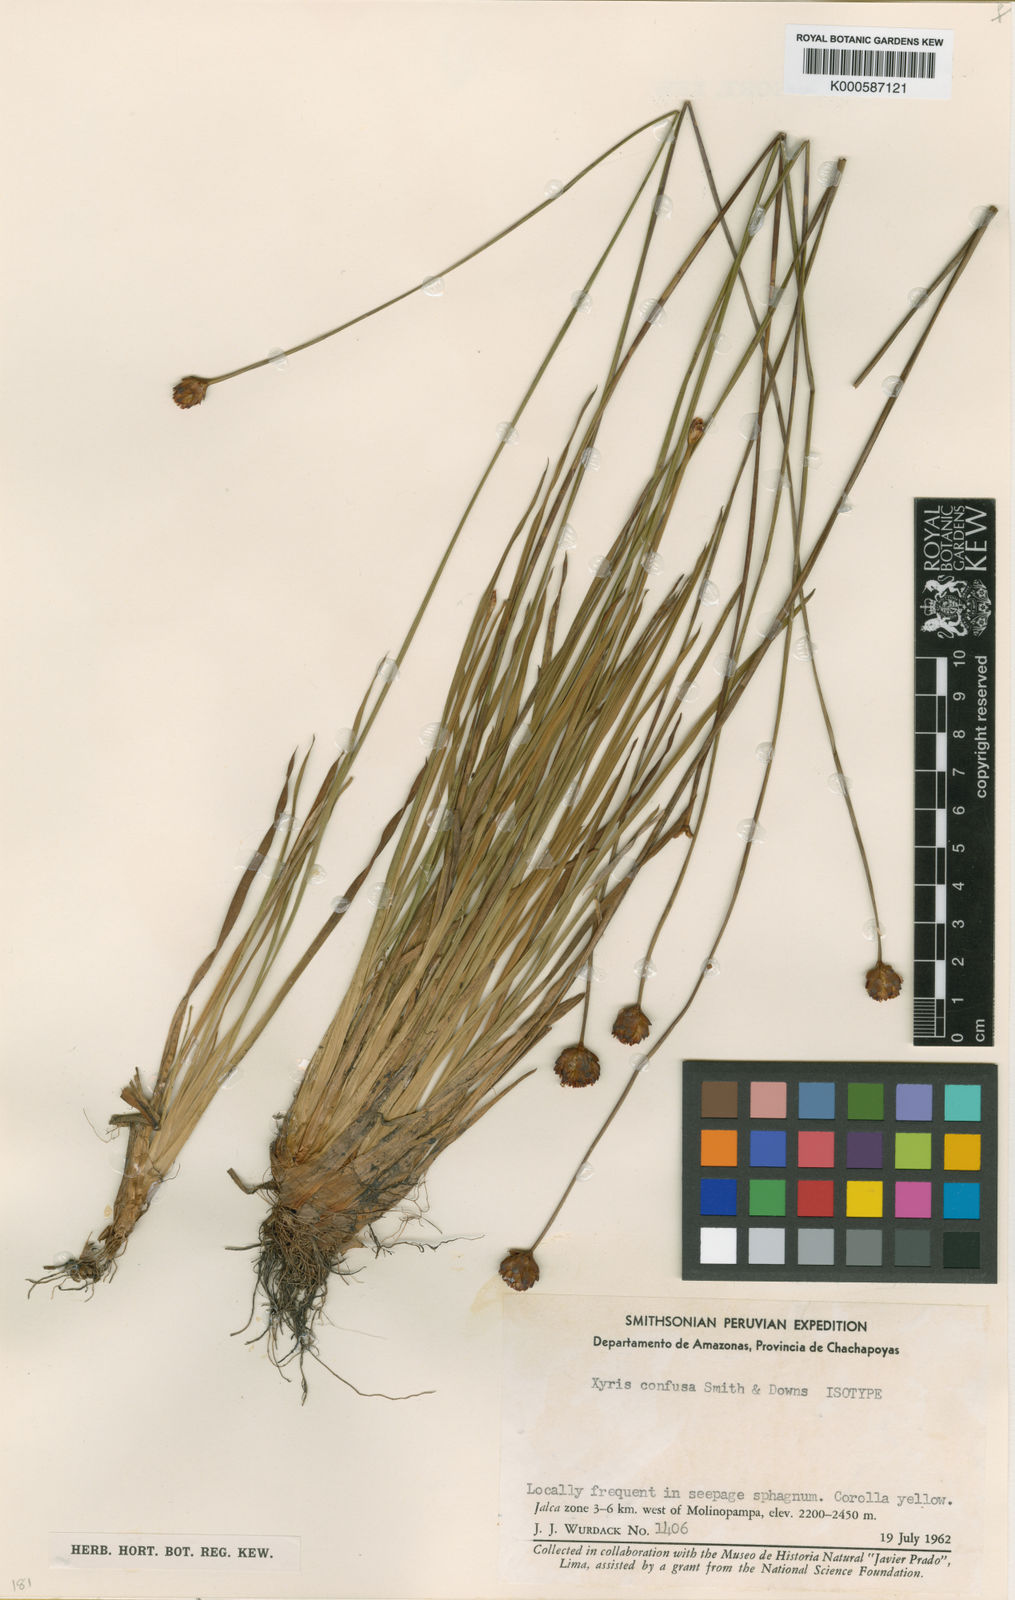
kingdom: Plantae
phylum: Tracheophyta
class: Liliopsida
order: Poales
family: Xyridaceae
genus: Xyris
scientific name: Xyris confusa
